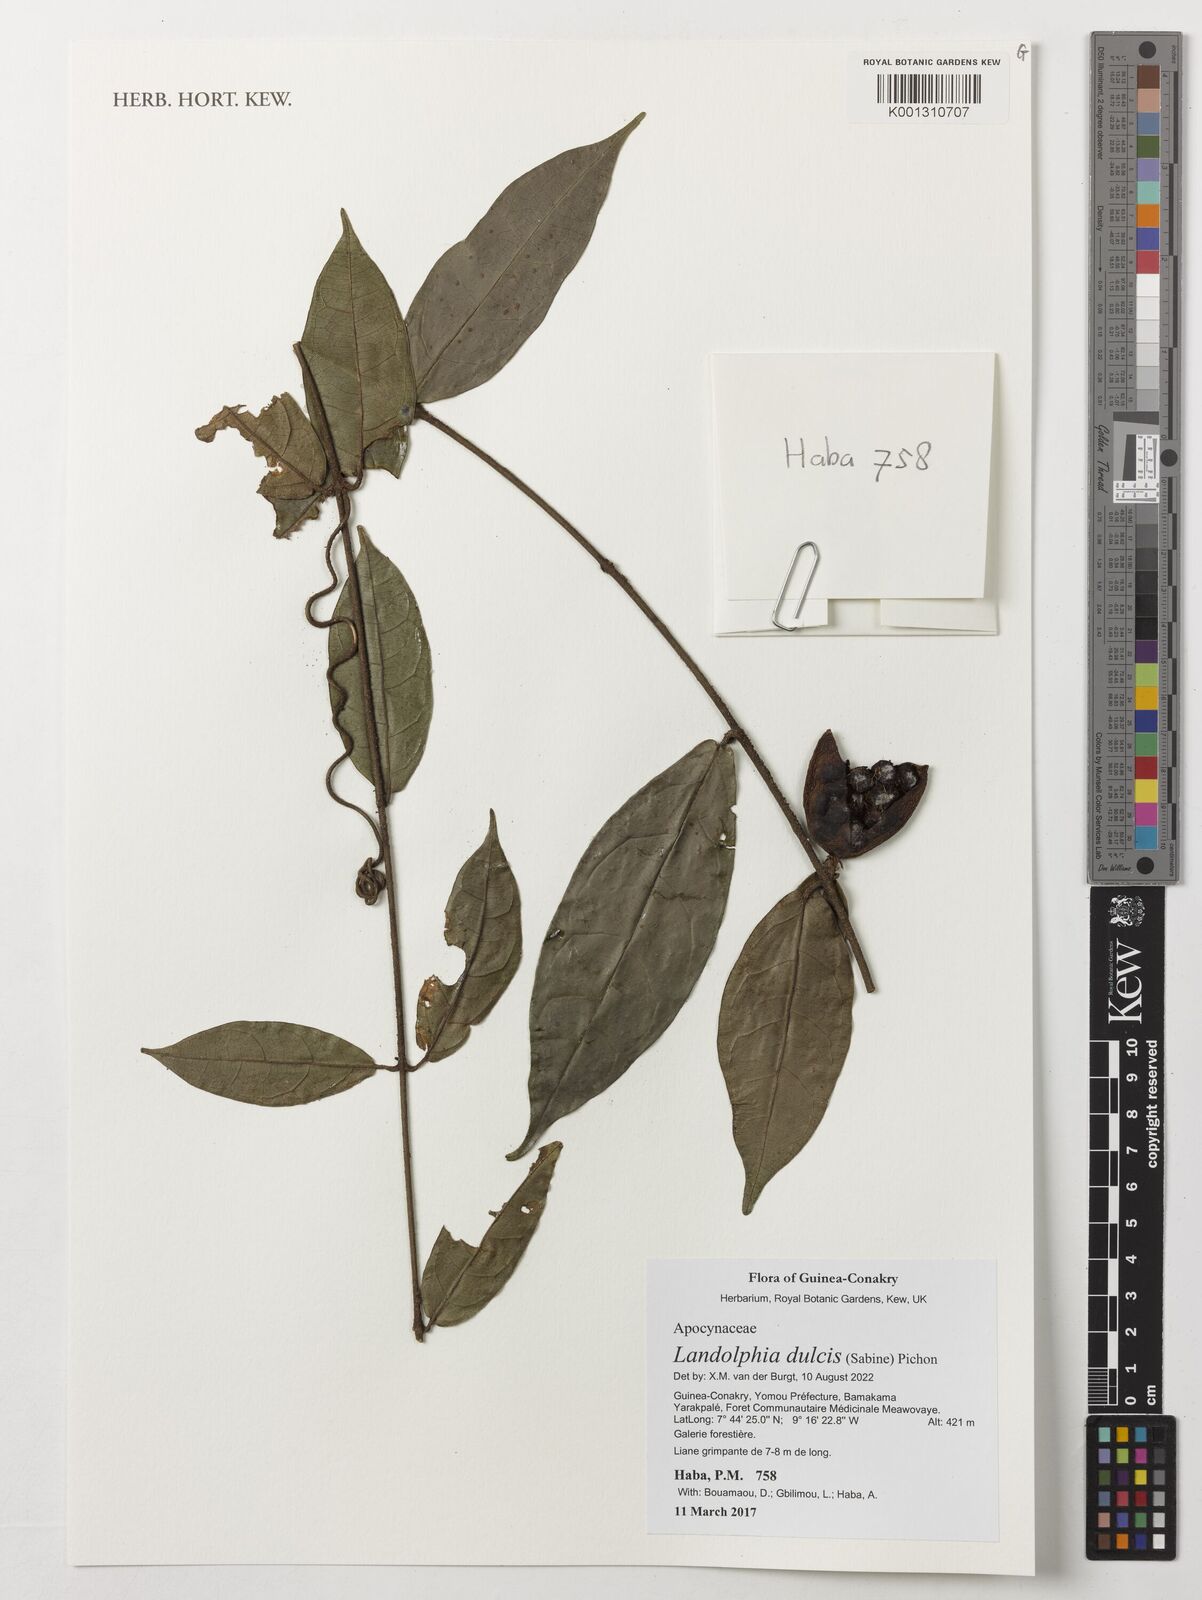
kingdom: Plantae
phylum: Tracheophyta
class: Magnoliopsida
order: Gentianales
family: Apocynaceae
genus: Landolphia
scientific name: Landolphia dulcis
